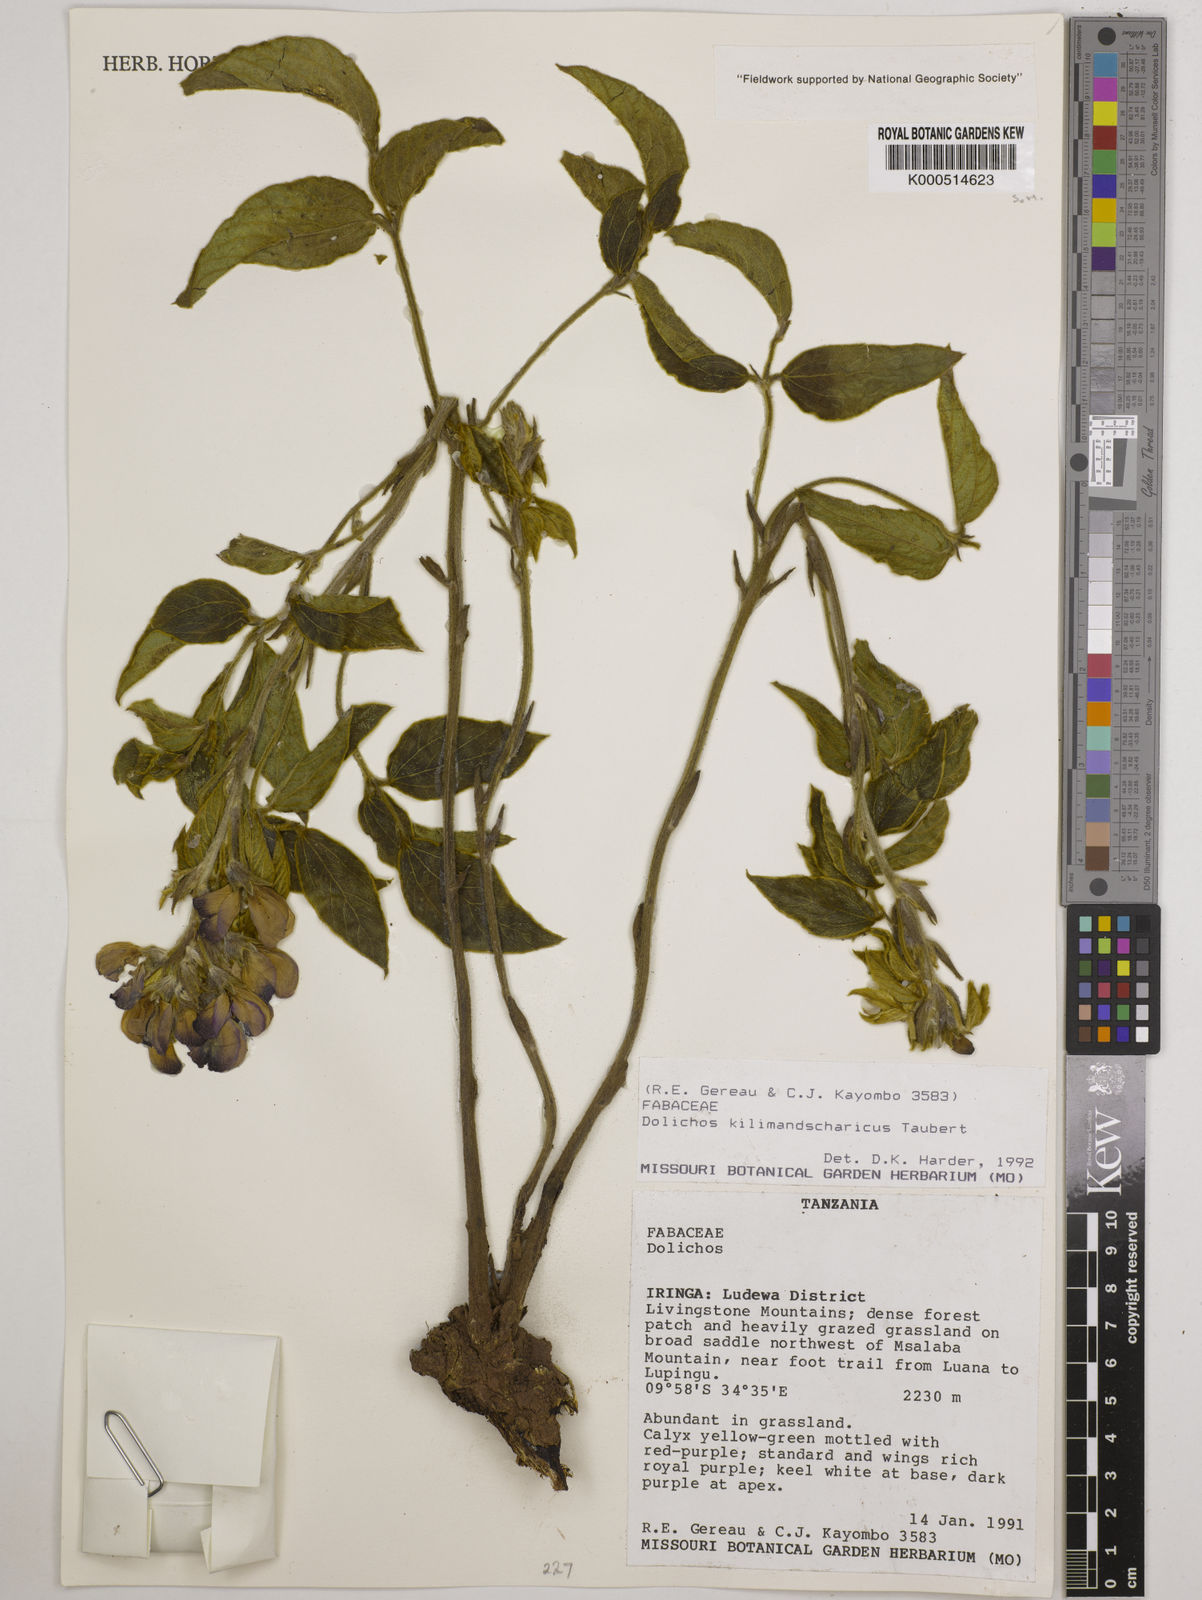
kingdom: Plantae
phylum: Tracheophyta
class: Magnoliopsida
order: Fabales
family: Fabaceae
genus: Dolichos
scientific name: Dolichos kilimandscharicus
